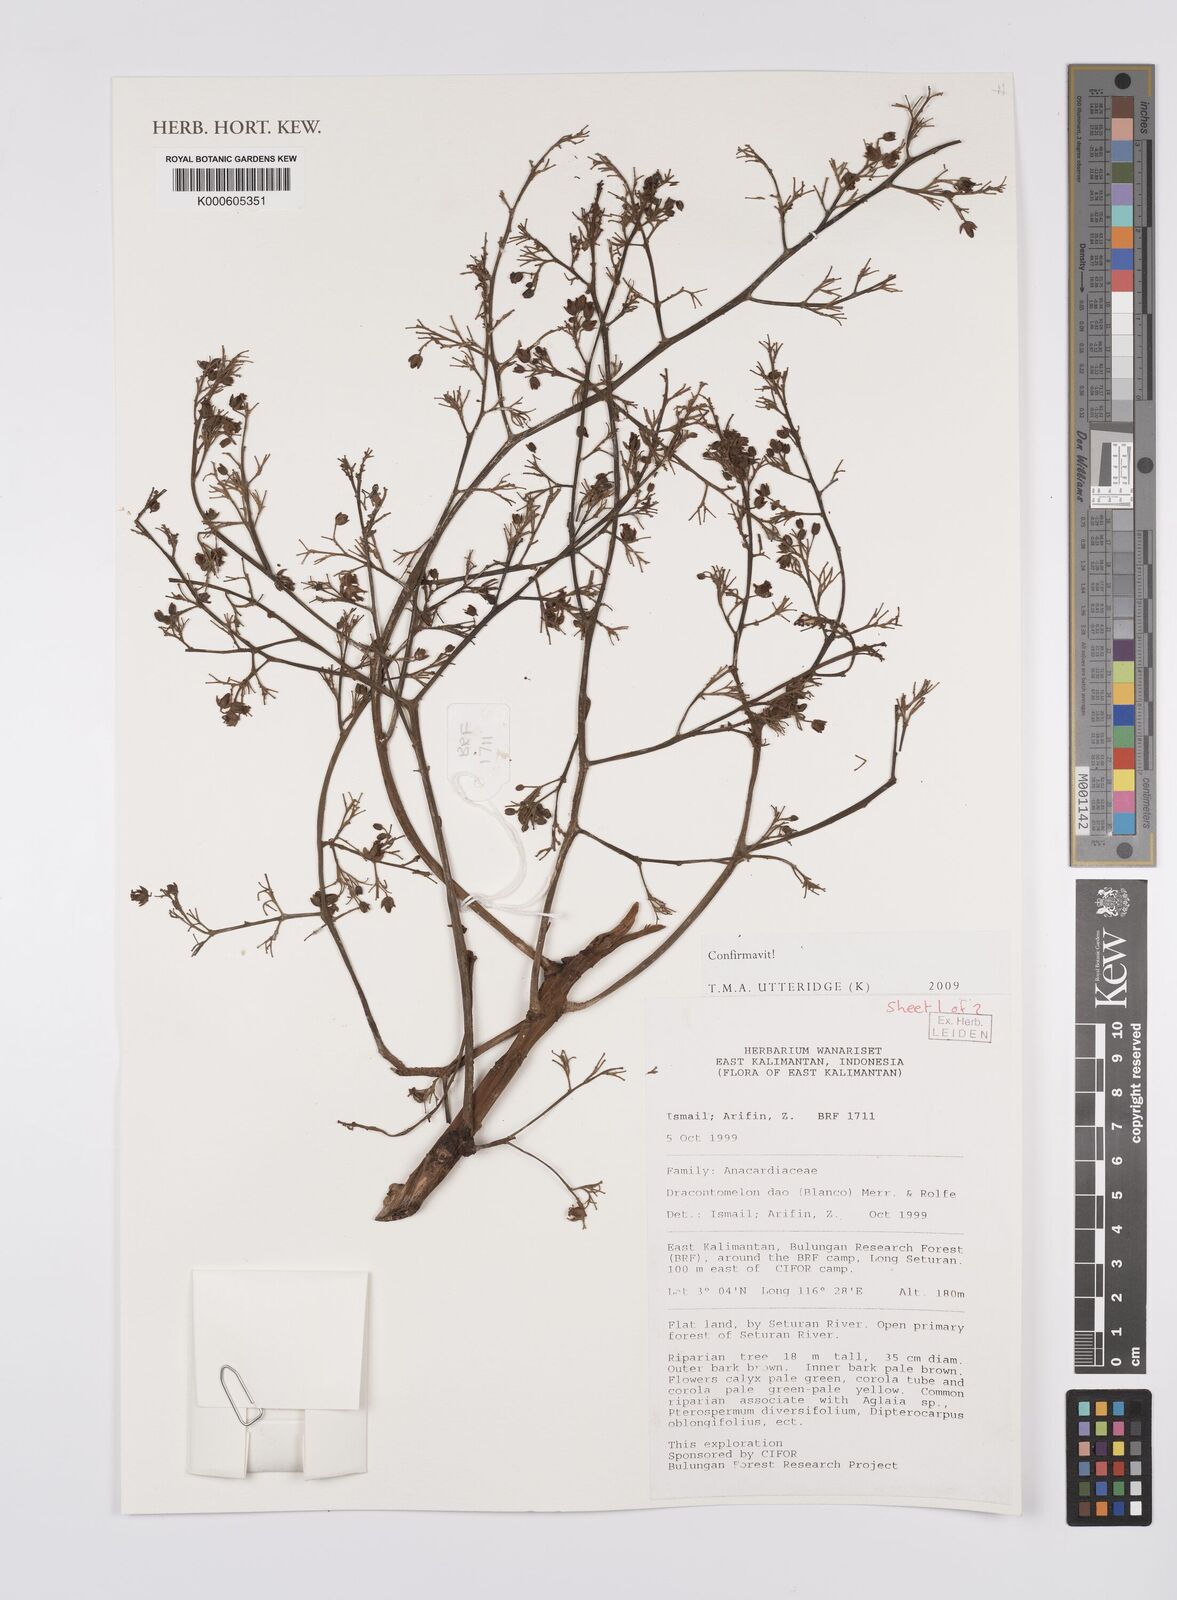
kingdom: Plantae
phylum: Tracheophyta
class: Magnoliopsida
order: Sapindales
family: Anacardiaceae
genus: Dracontomelon
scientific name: Dracontomelon dao
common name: Argus pheasant-tree
